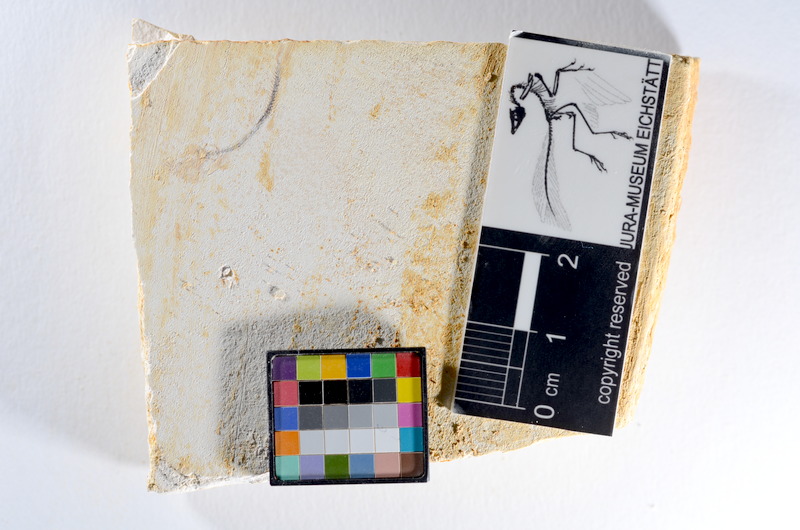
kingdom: Animalia
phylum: Chordata
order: Salmoniformes
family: Orthogonikleithridae
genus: Orthogonikleithrus
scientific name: Orthogonikleithrus hoelli
